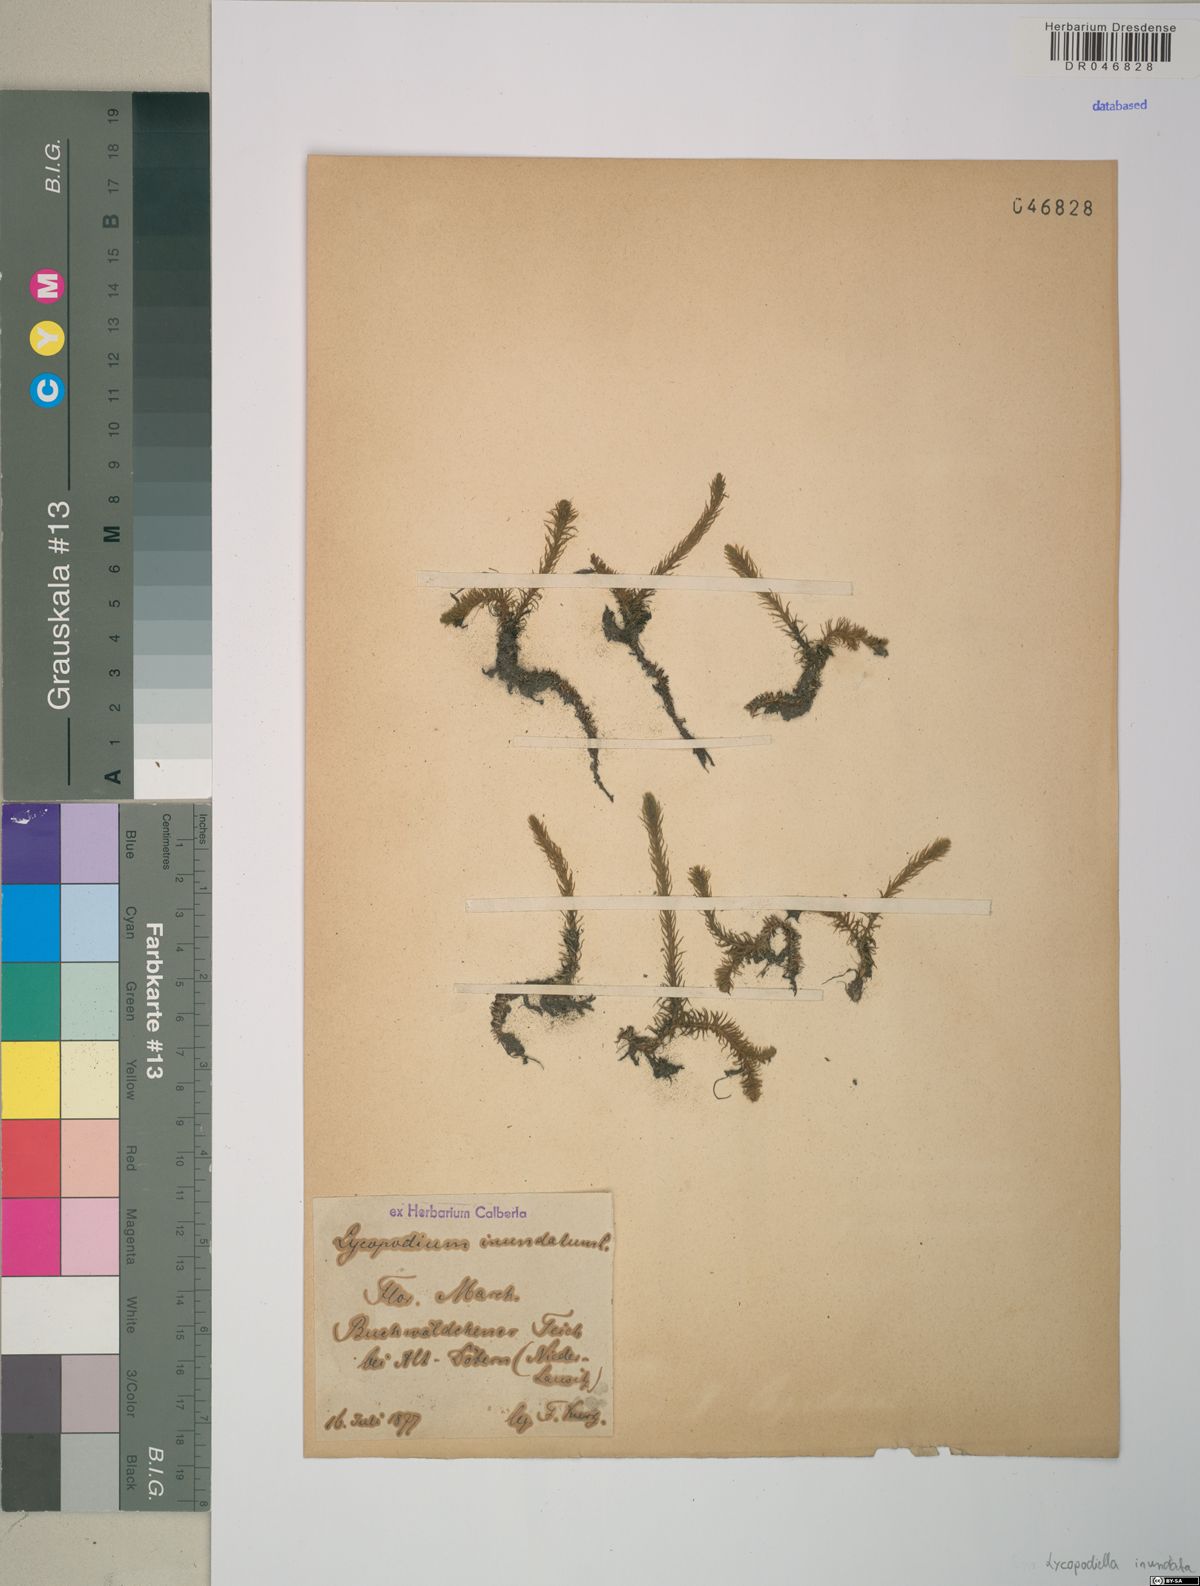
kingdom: Plantae
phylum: Tracheophyta
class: Lycopodiopsida
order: Lycopodiales
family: Lycopodiaceae
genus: Lycopodiella
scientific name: Lycopodiella inundata
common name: Marsh clubmoss
